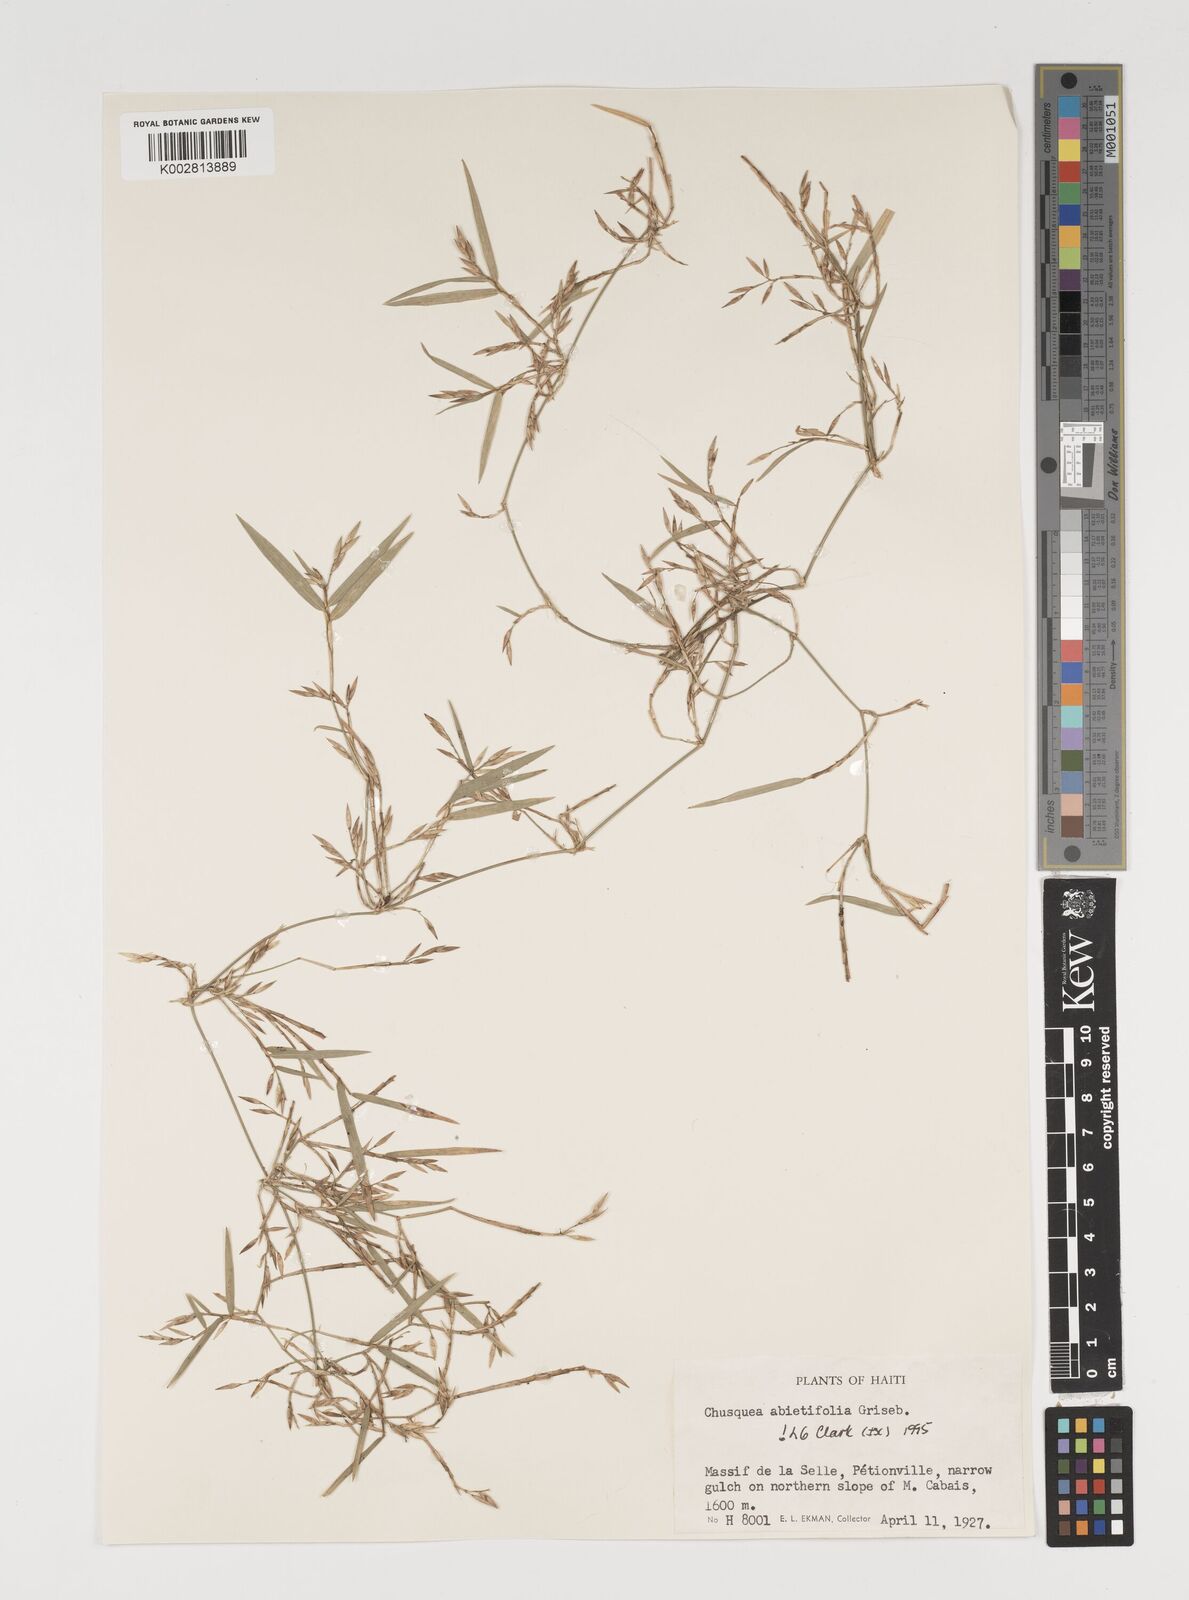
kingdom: Plantae
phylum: Tracheophyta
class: Liliopsida
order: Poales
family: Poaceae
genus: Chusquea
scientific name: Chusquea abietifolia
